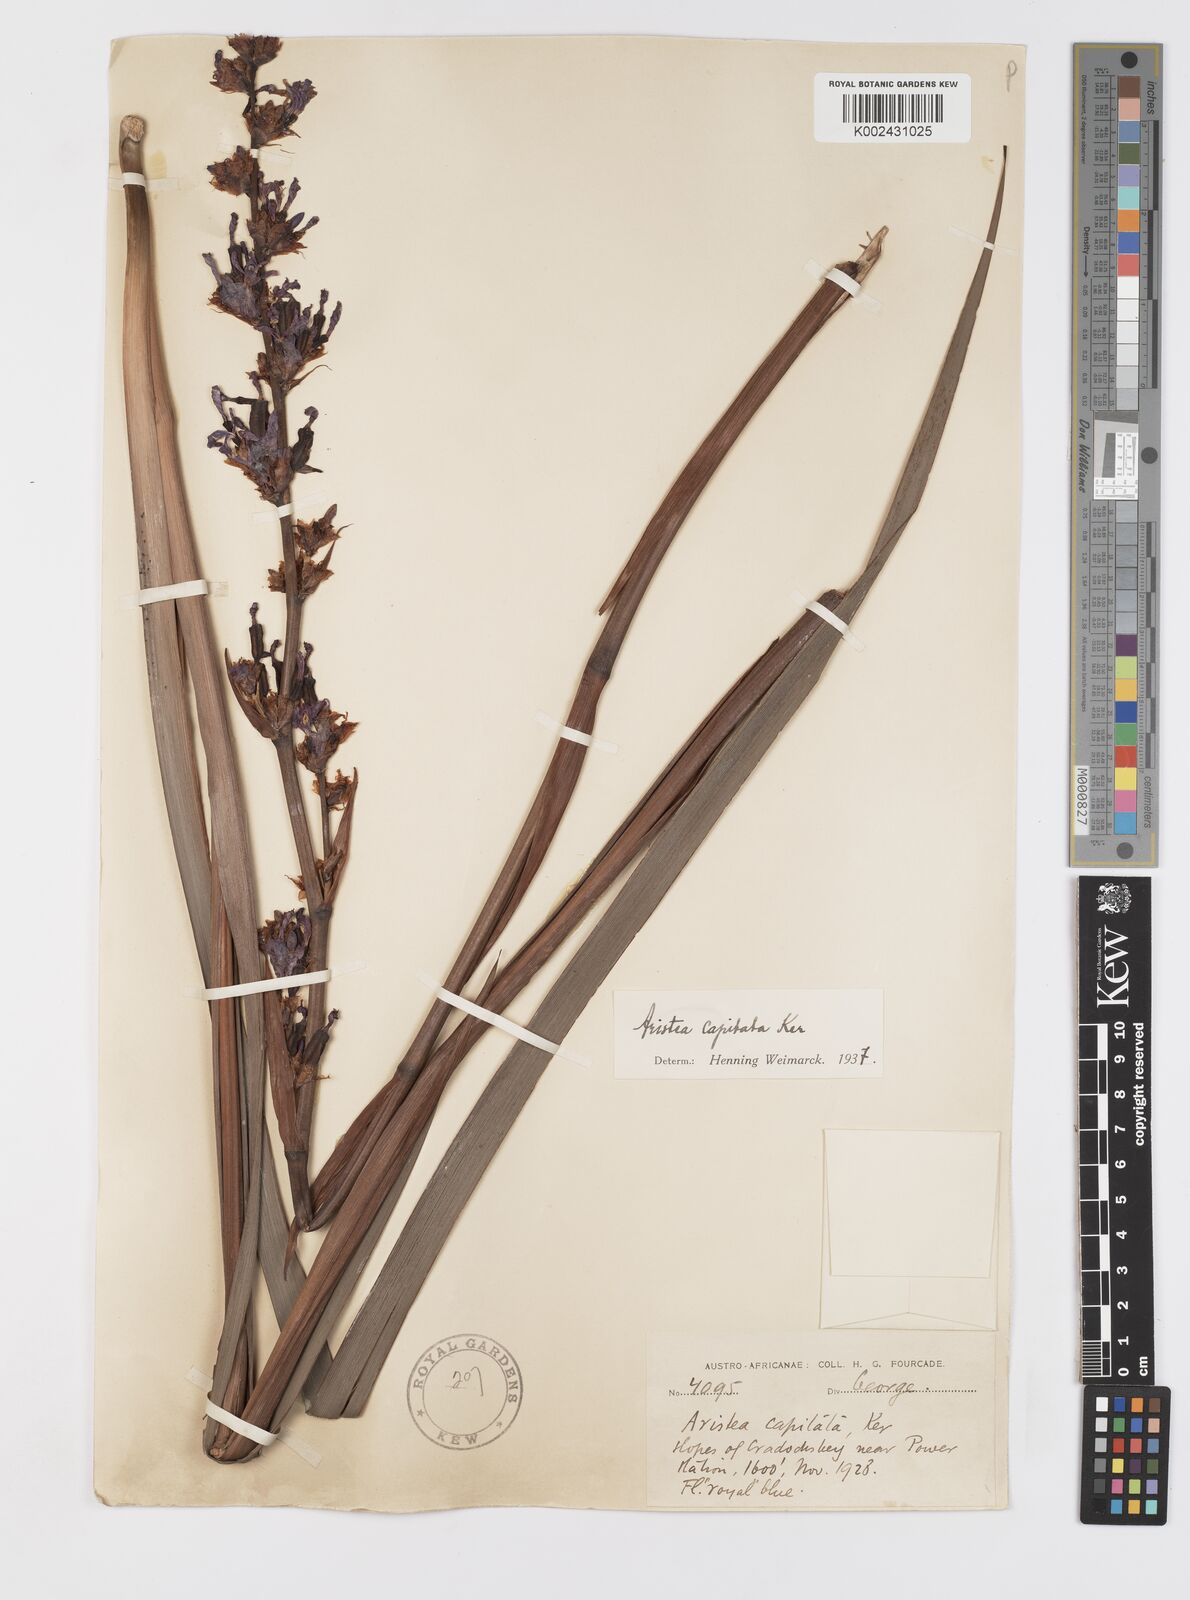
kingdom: Plantae
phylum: Tracheophyta
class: Liliopsida
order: Asparagales
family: Iridaceae
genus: Aristea
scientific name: Aristea capitata
